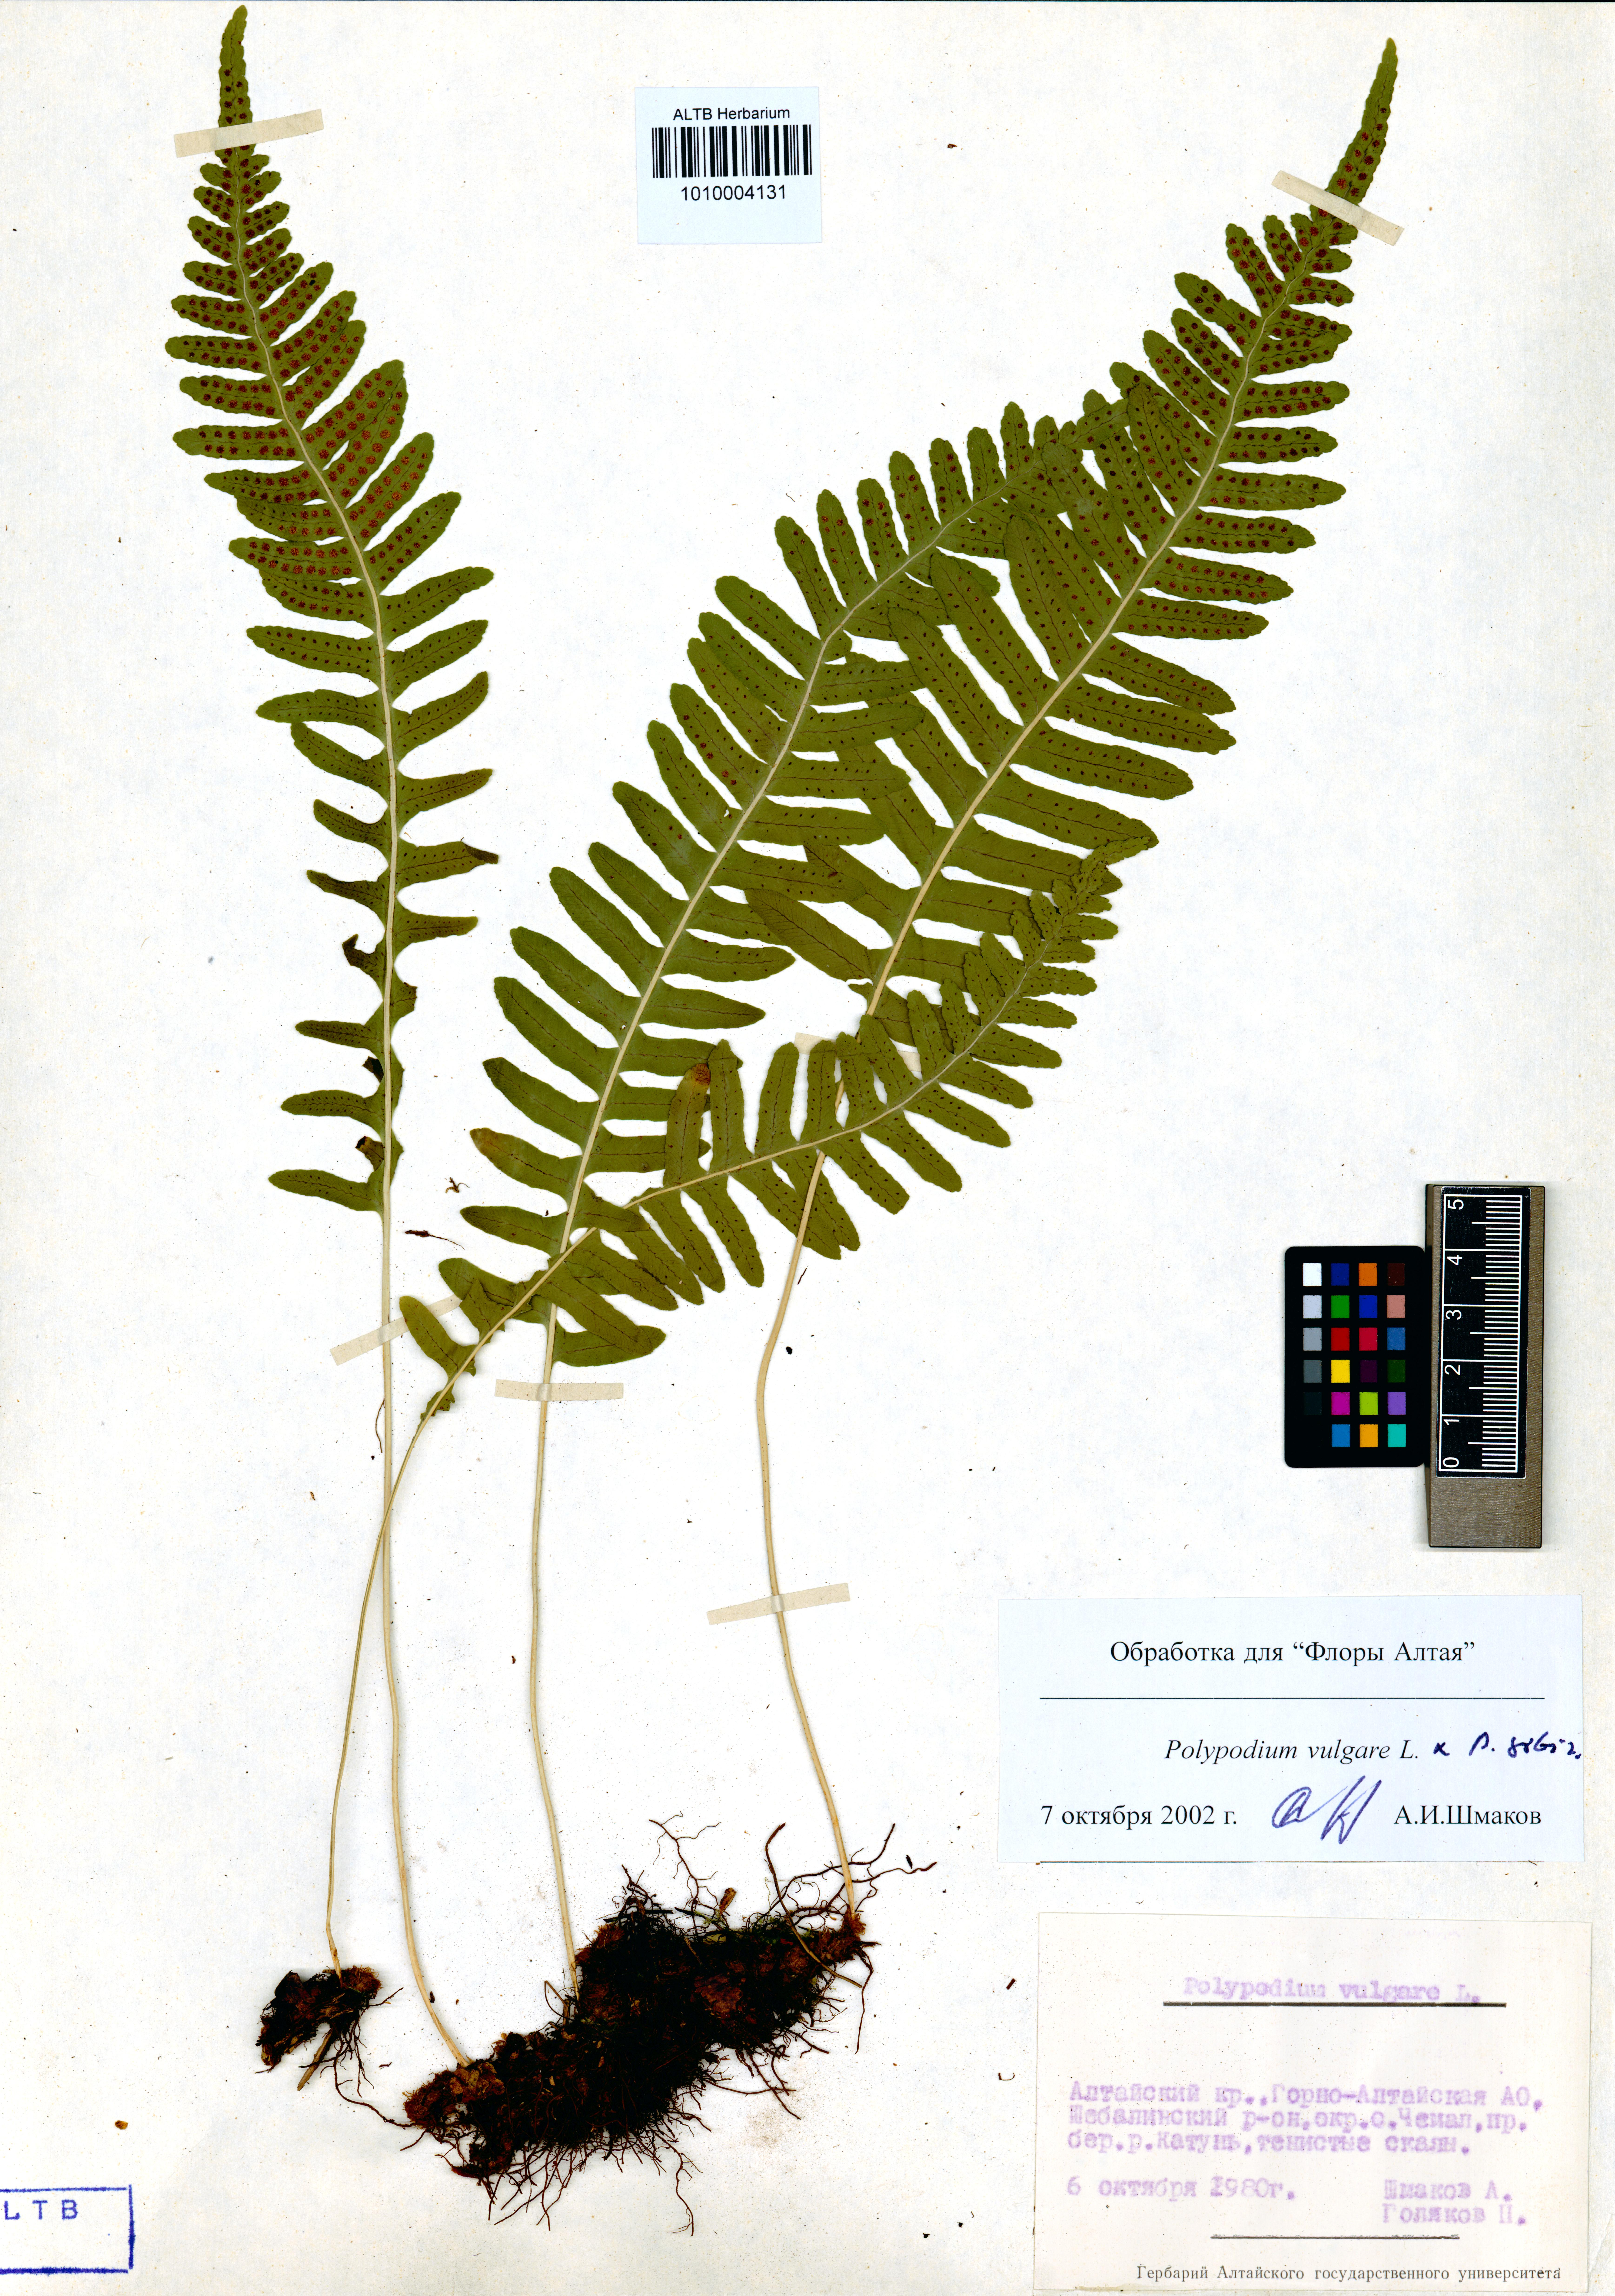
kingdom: Plantae
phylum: Tracheophyta
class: Polypodiopsida
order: Polypodiales
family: Polypodiaceae
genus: Polypodium
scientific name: Polypodium vulgare
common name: Common polypody
